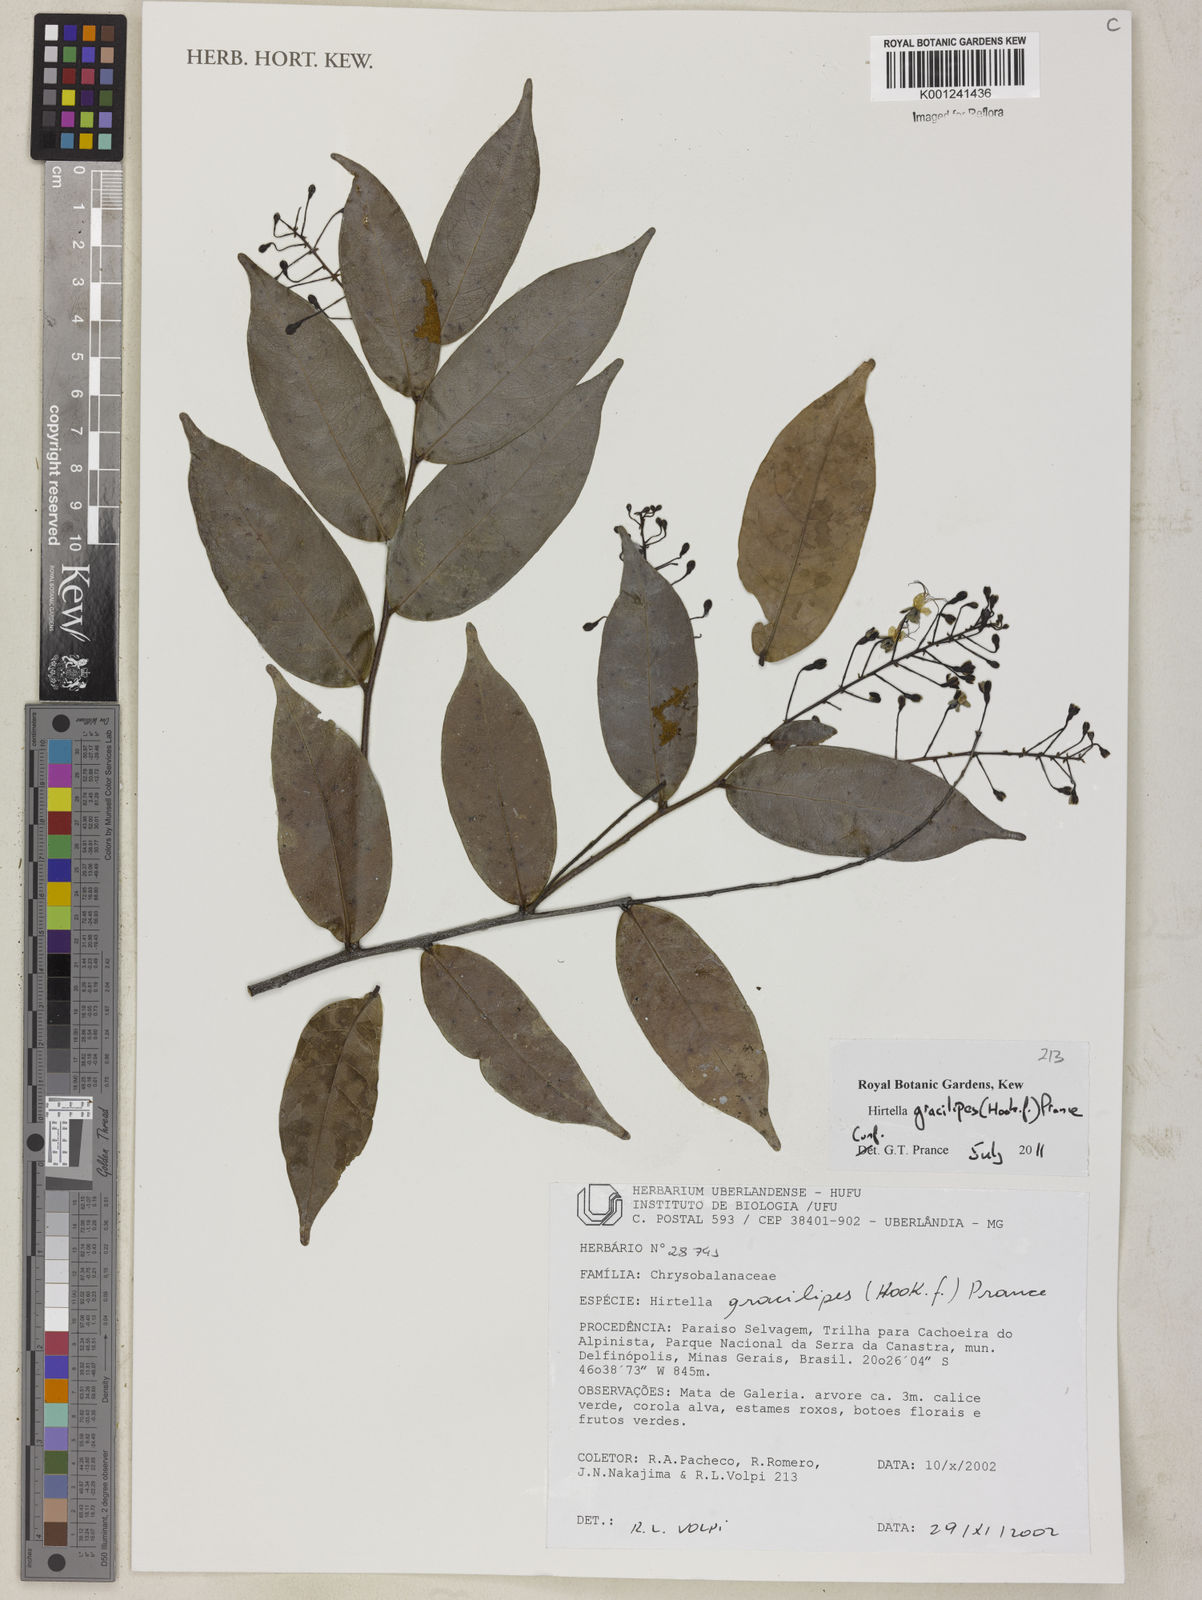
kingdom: Plantae
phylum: Tracheophyta
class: Magnoliopsida
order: Malpighiales
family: Chrysobalanaceae
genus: Hirtella
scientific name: Hirtella gracilipes
